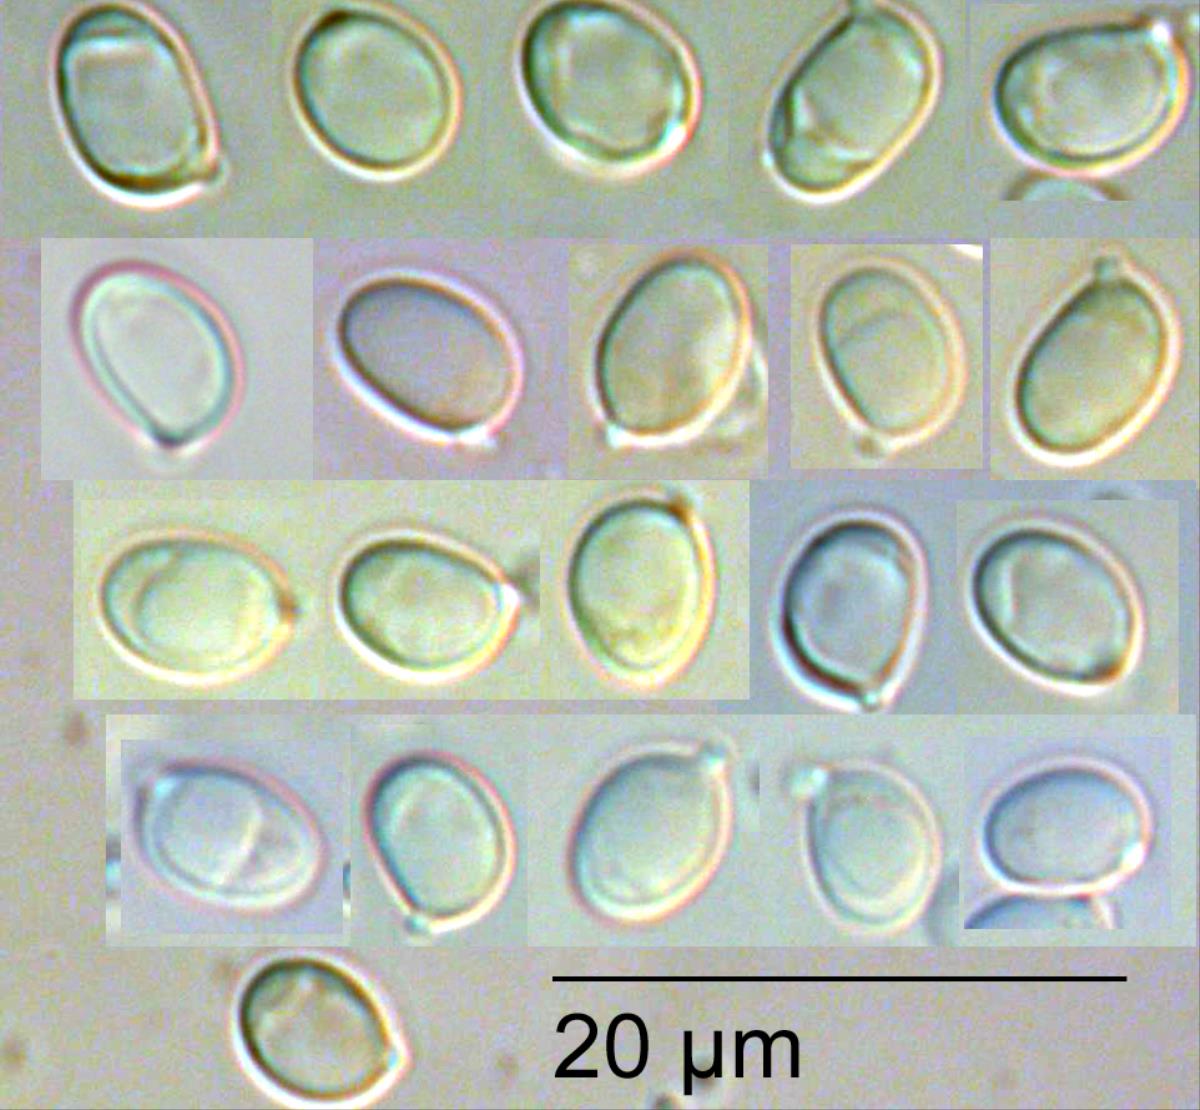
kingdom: Fungi
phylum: Basidiomycota
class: Agaricomycetes
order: Agaricales
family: Tricholomataceae
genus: Tricholoma
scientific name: Tricholoma elegans
